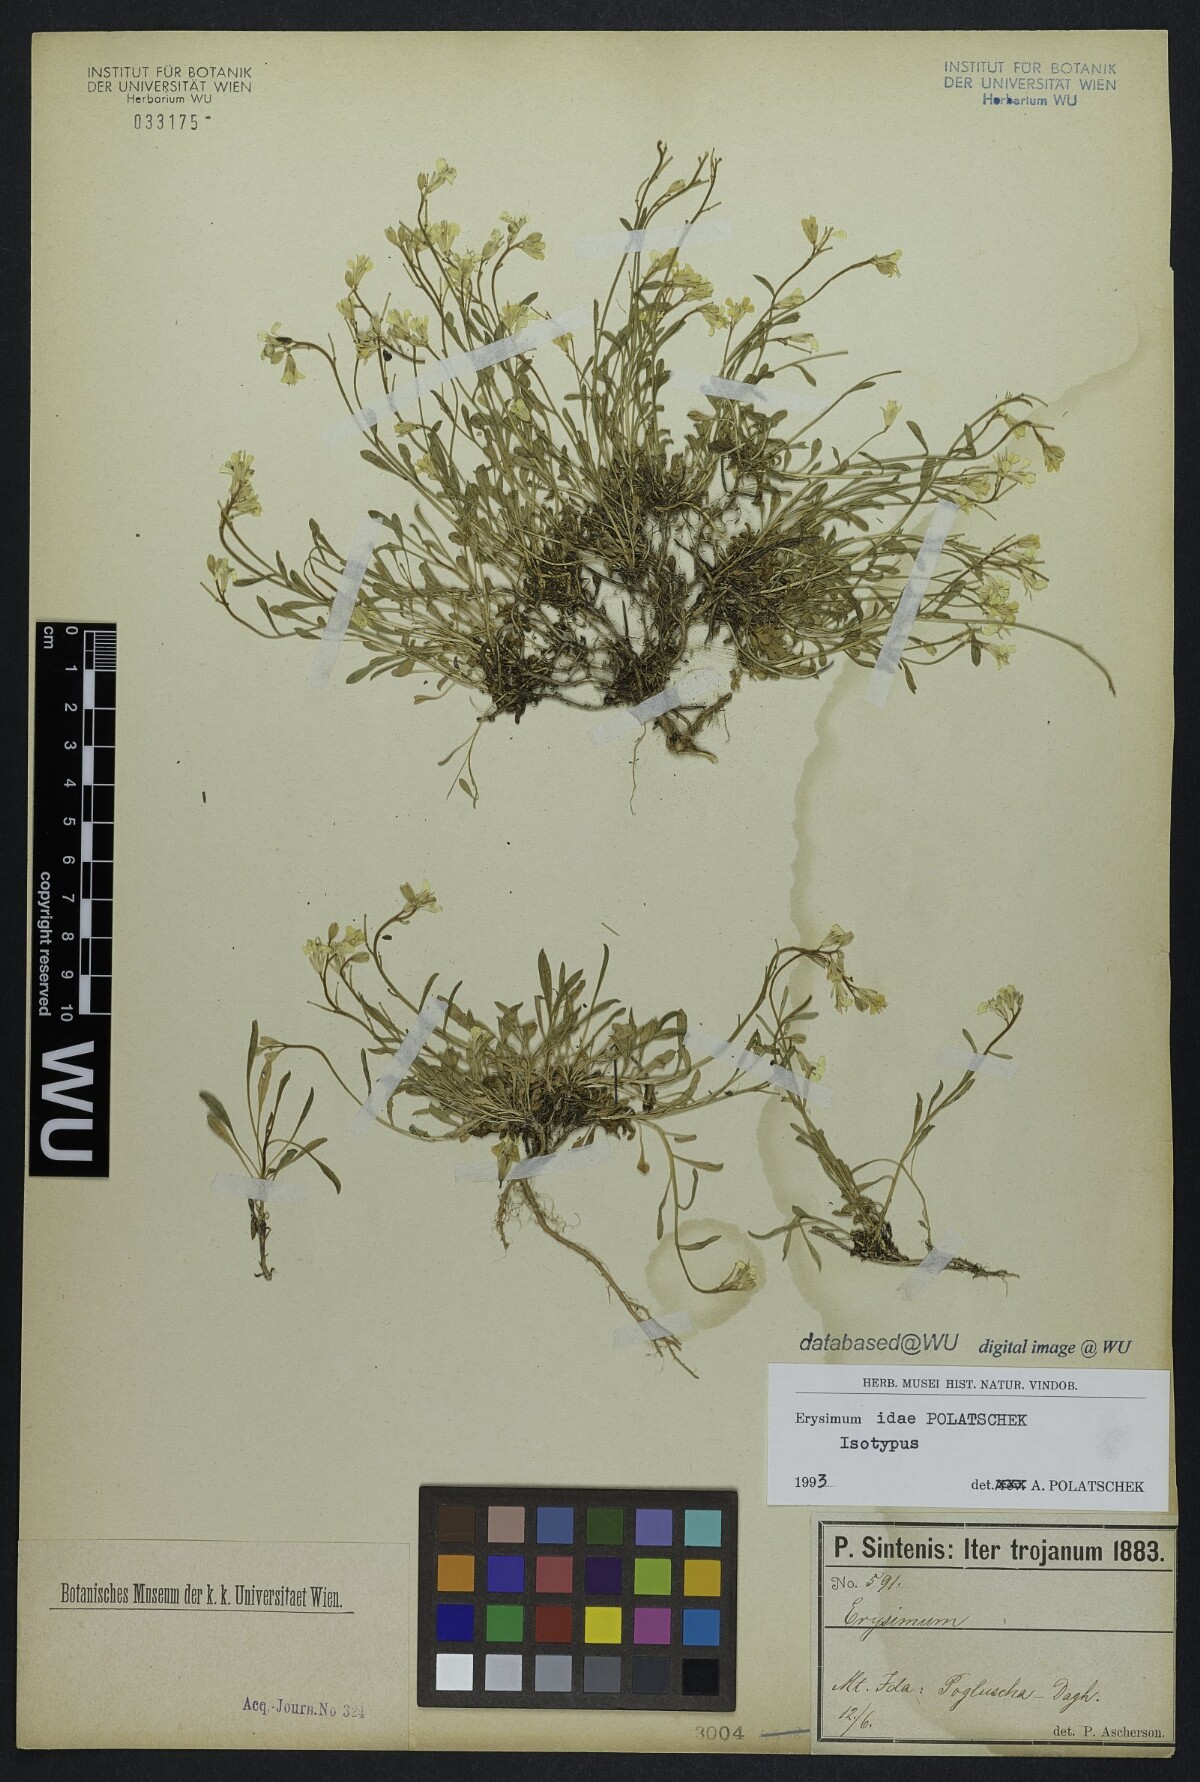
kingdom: Plantae
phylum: Tracheophyta
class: Magnoliopsida
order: Brassicales
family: Brassicaceae
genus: Erysimum
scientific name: Erysimum idae
